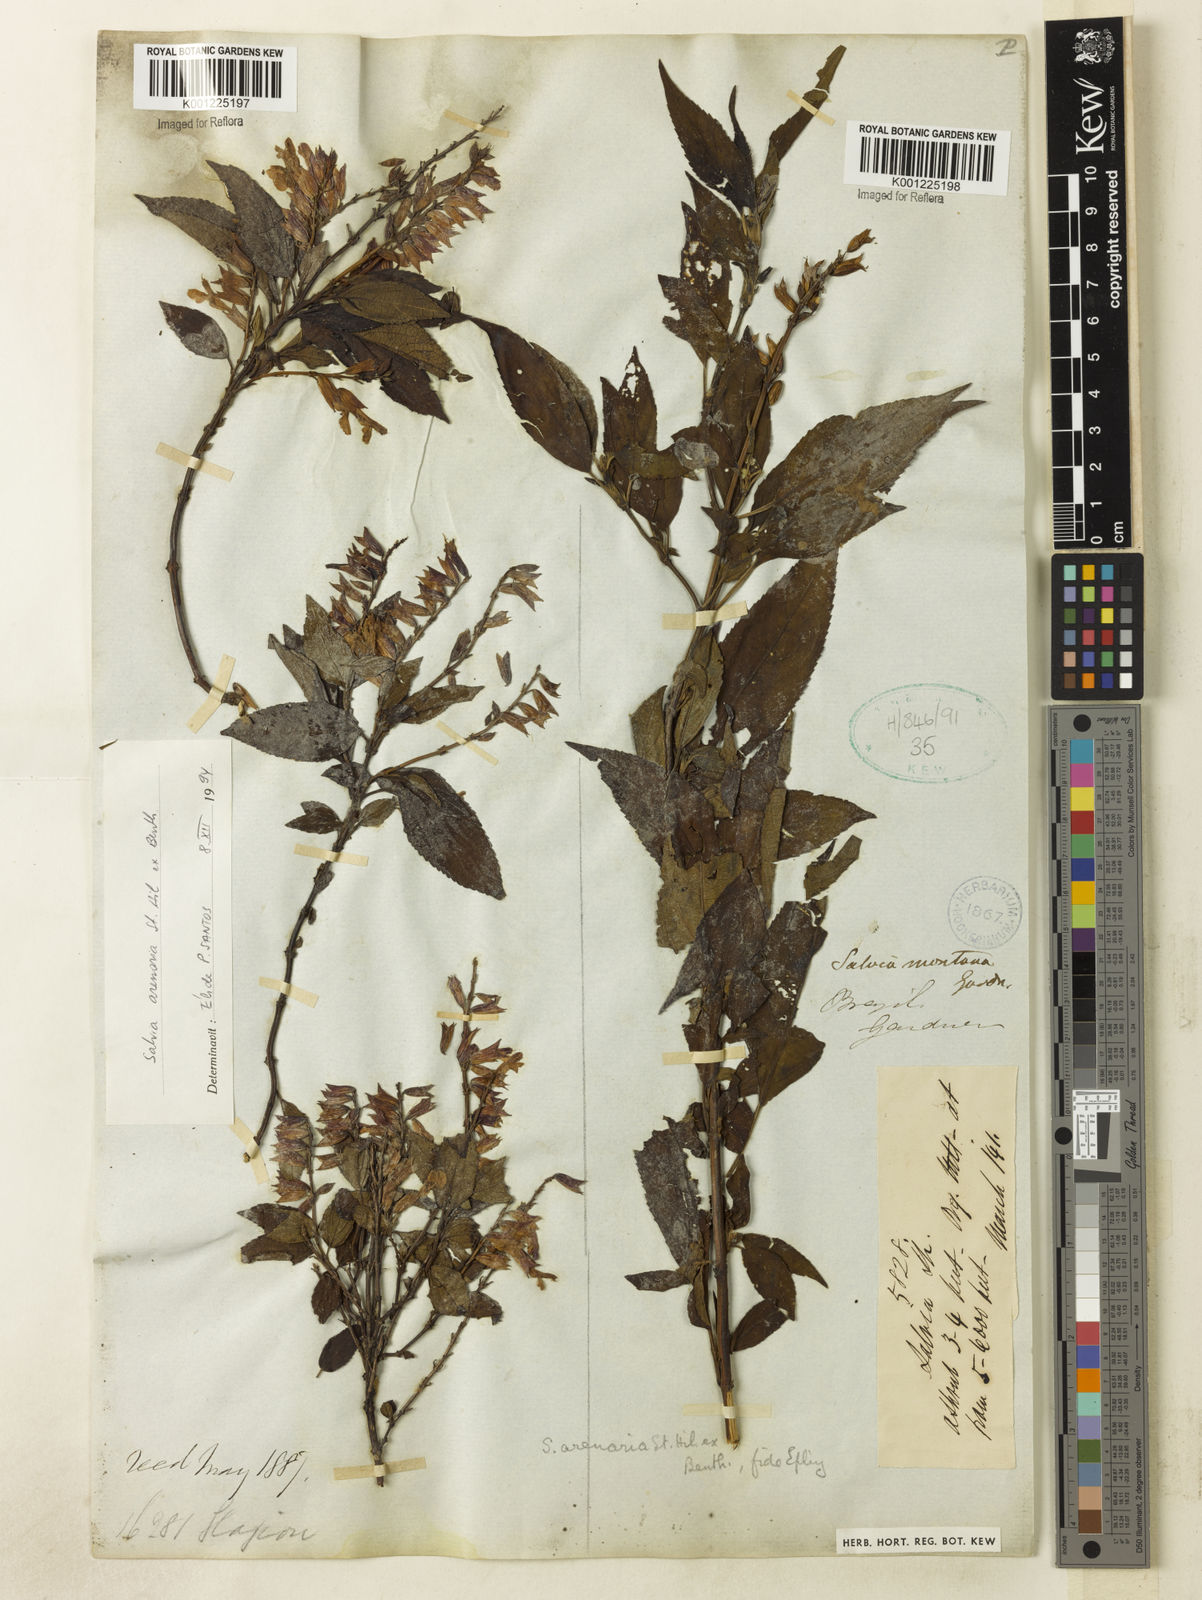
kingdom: Plantae
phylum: Tracheophyta
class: Magnoliopsida
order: Lamiales
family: Lamiaceae
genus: Salvia
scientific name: Salvia arenaria
